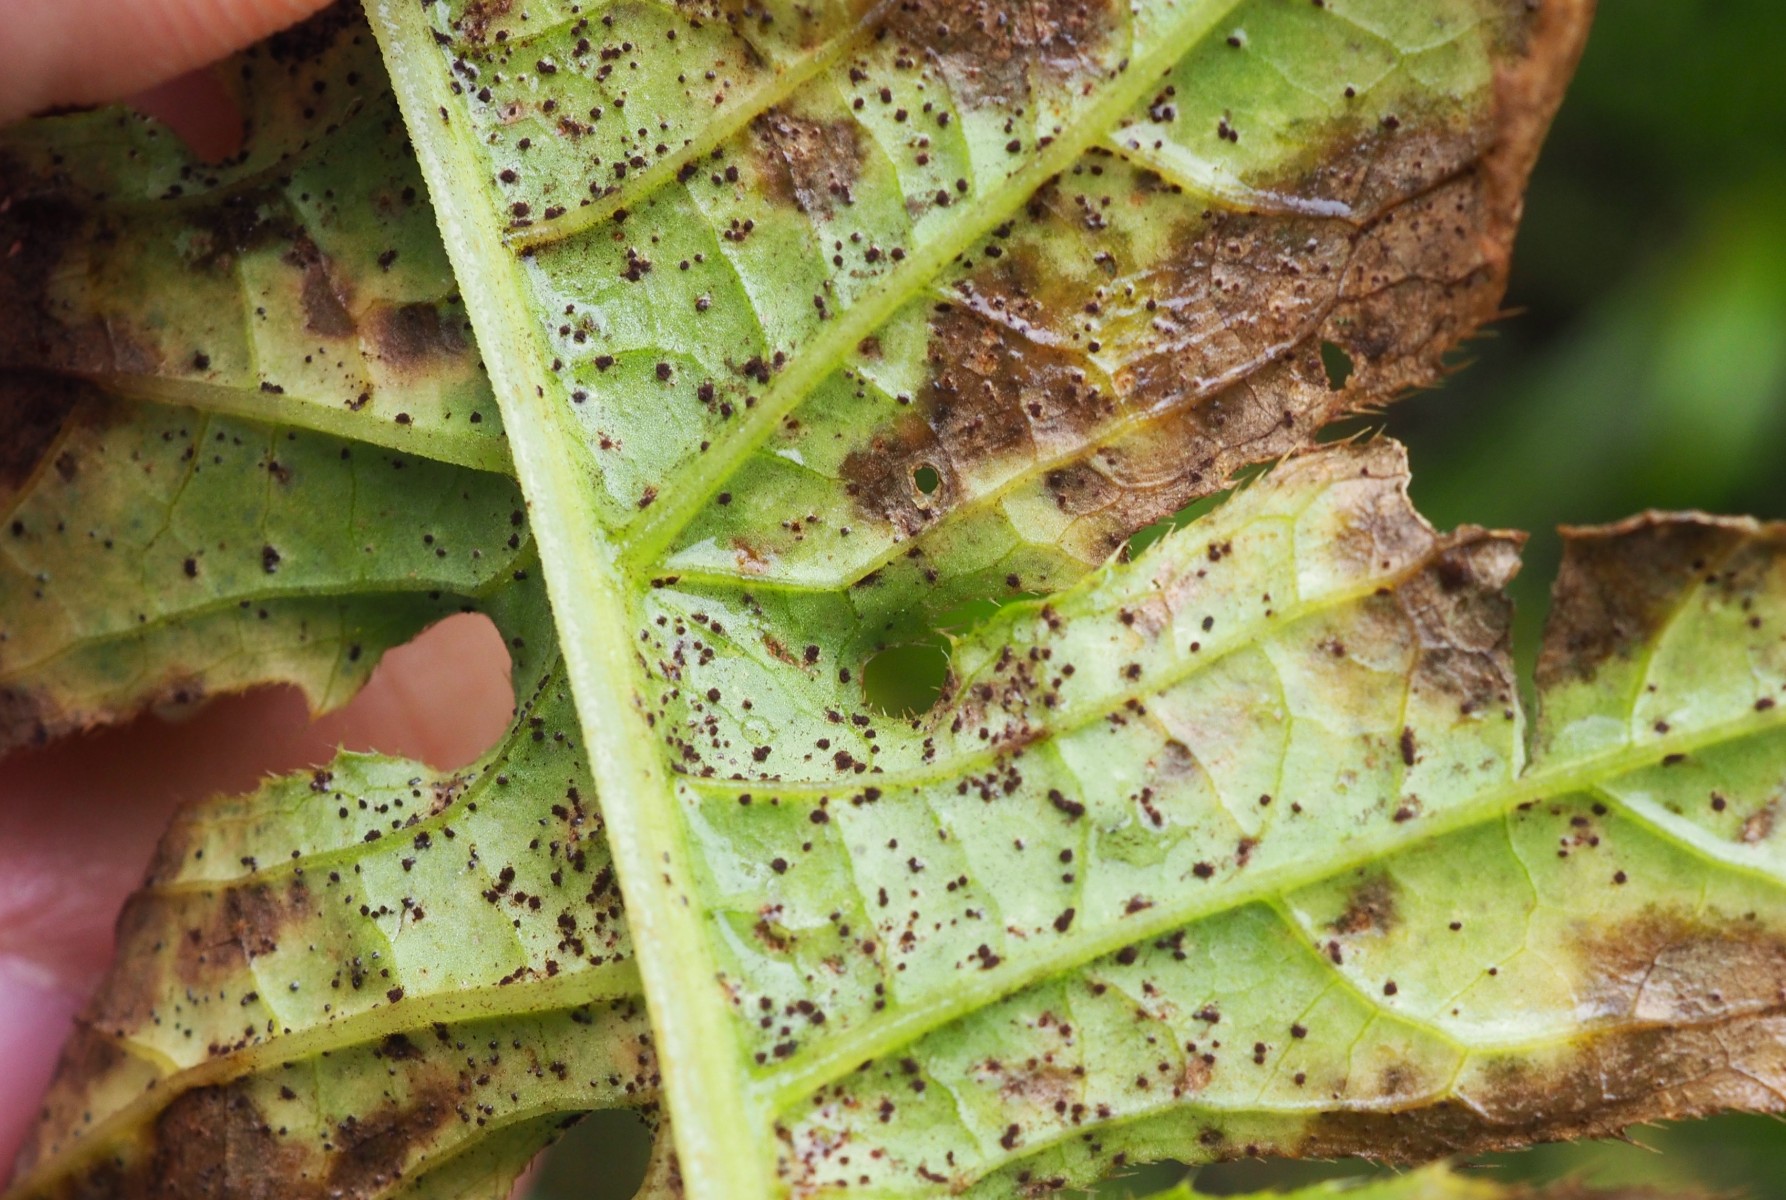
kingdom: Fungi
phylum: Basidiomycota
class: Pucciniomycetes
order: Pucciniales
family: Pucciniaceae
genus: Puccinia
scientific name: Puccinia laschii
